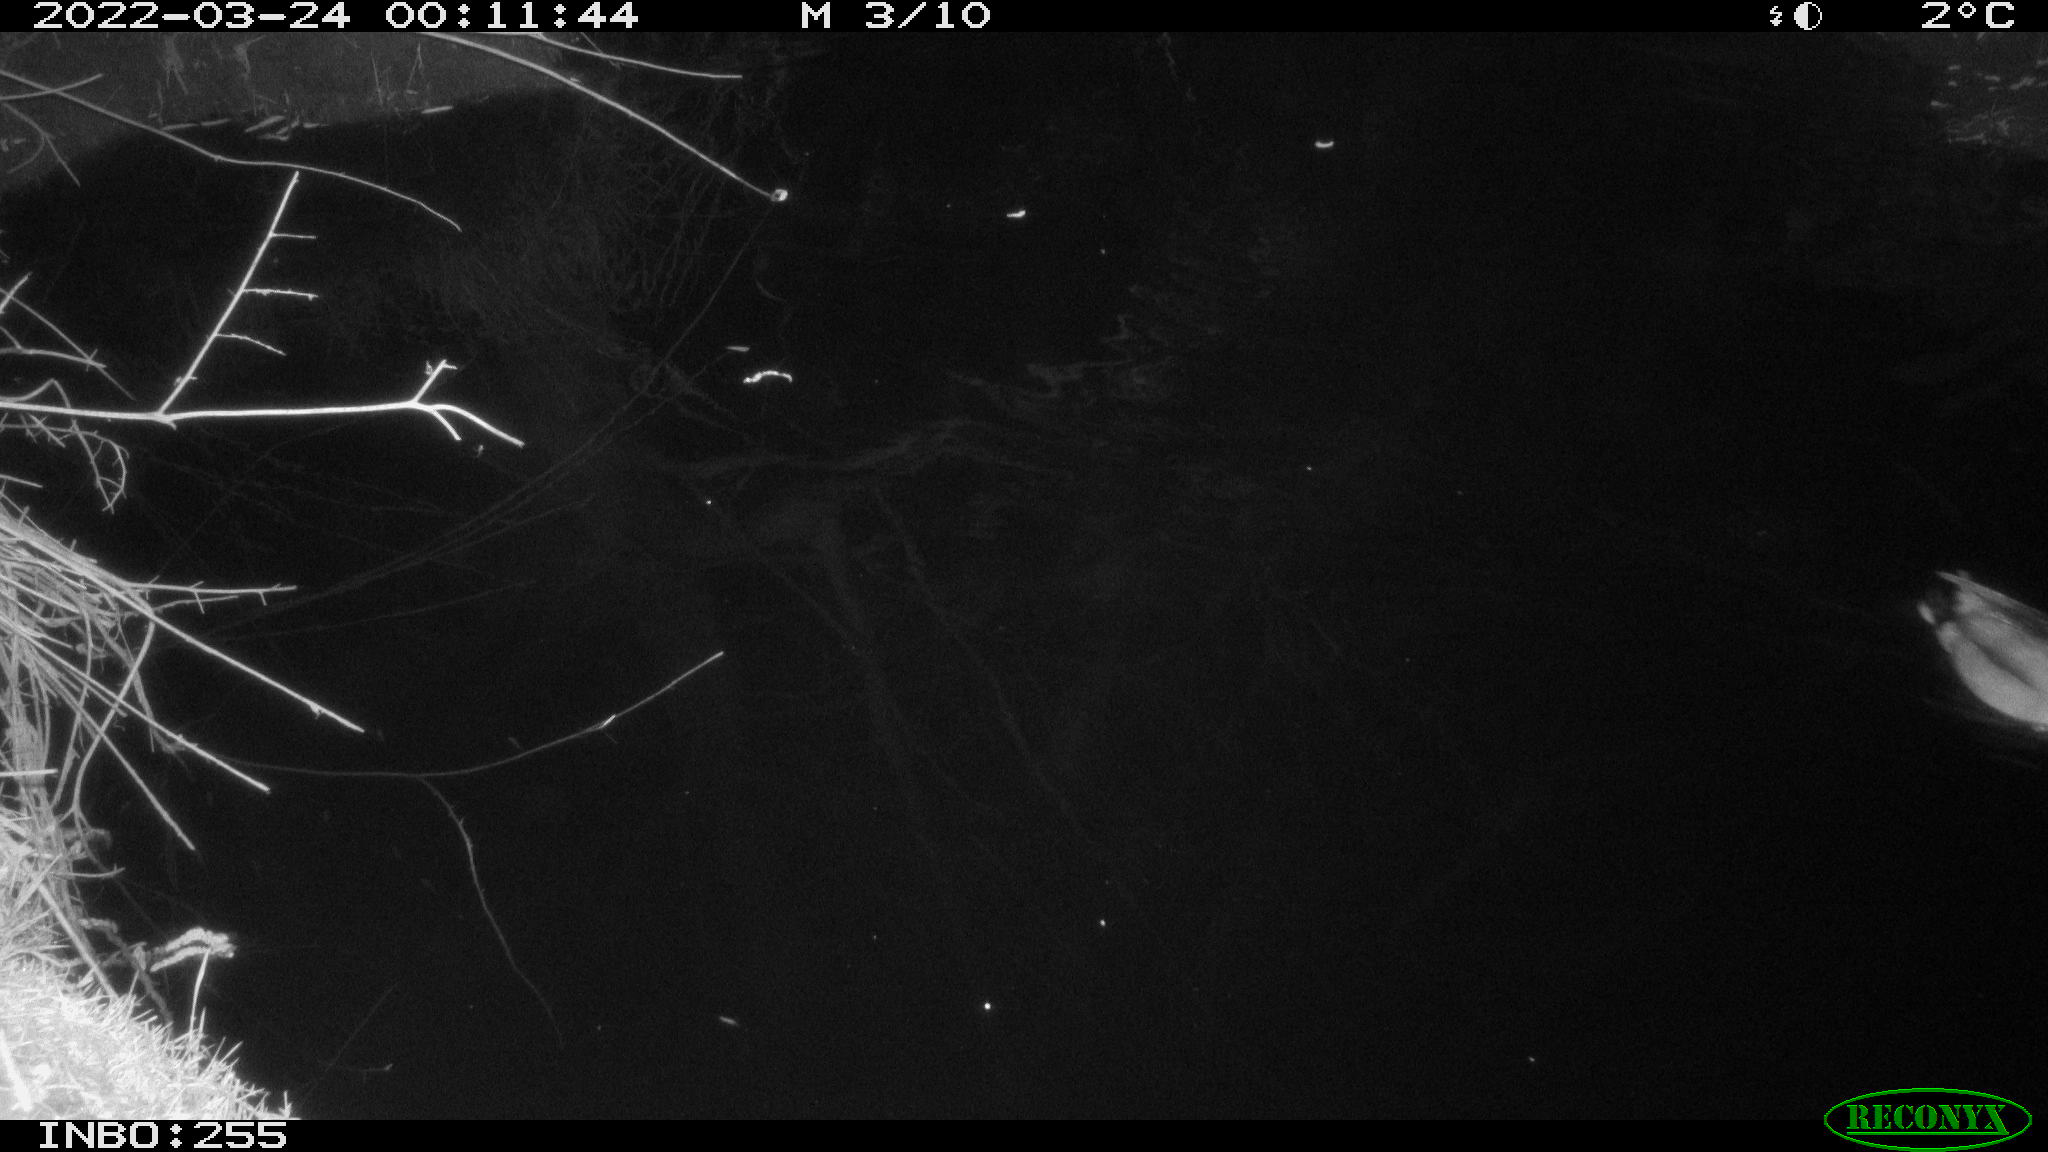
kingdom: Animalia
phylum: Chordata
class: Aves
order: Anseriformes
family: Anatidae
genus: Anas
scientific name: Anas platyrhynchos
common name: Mallard
